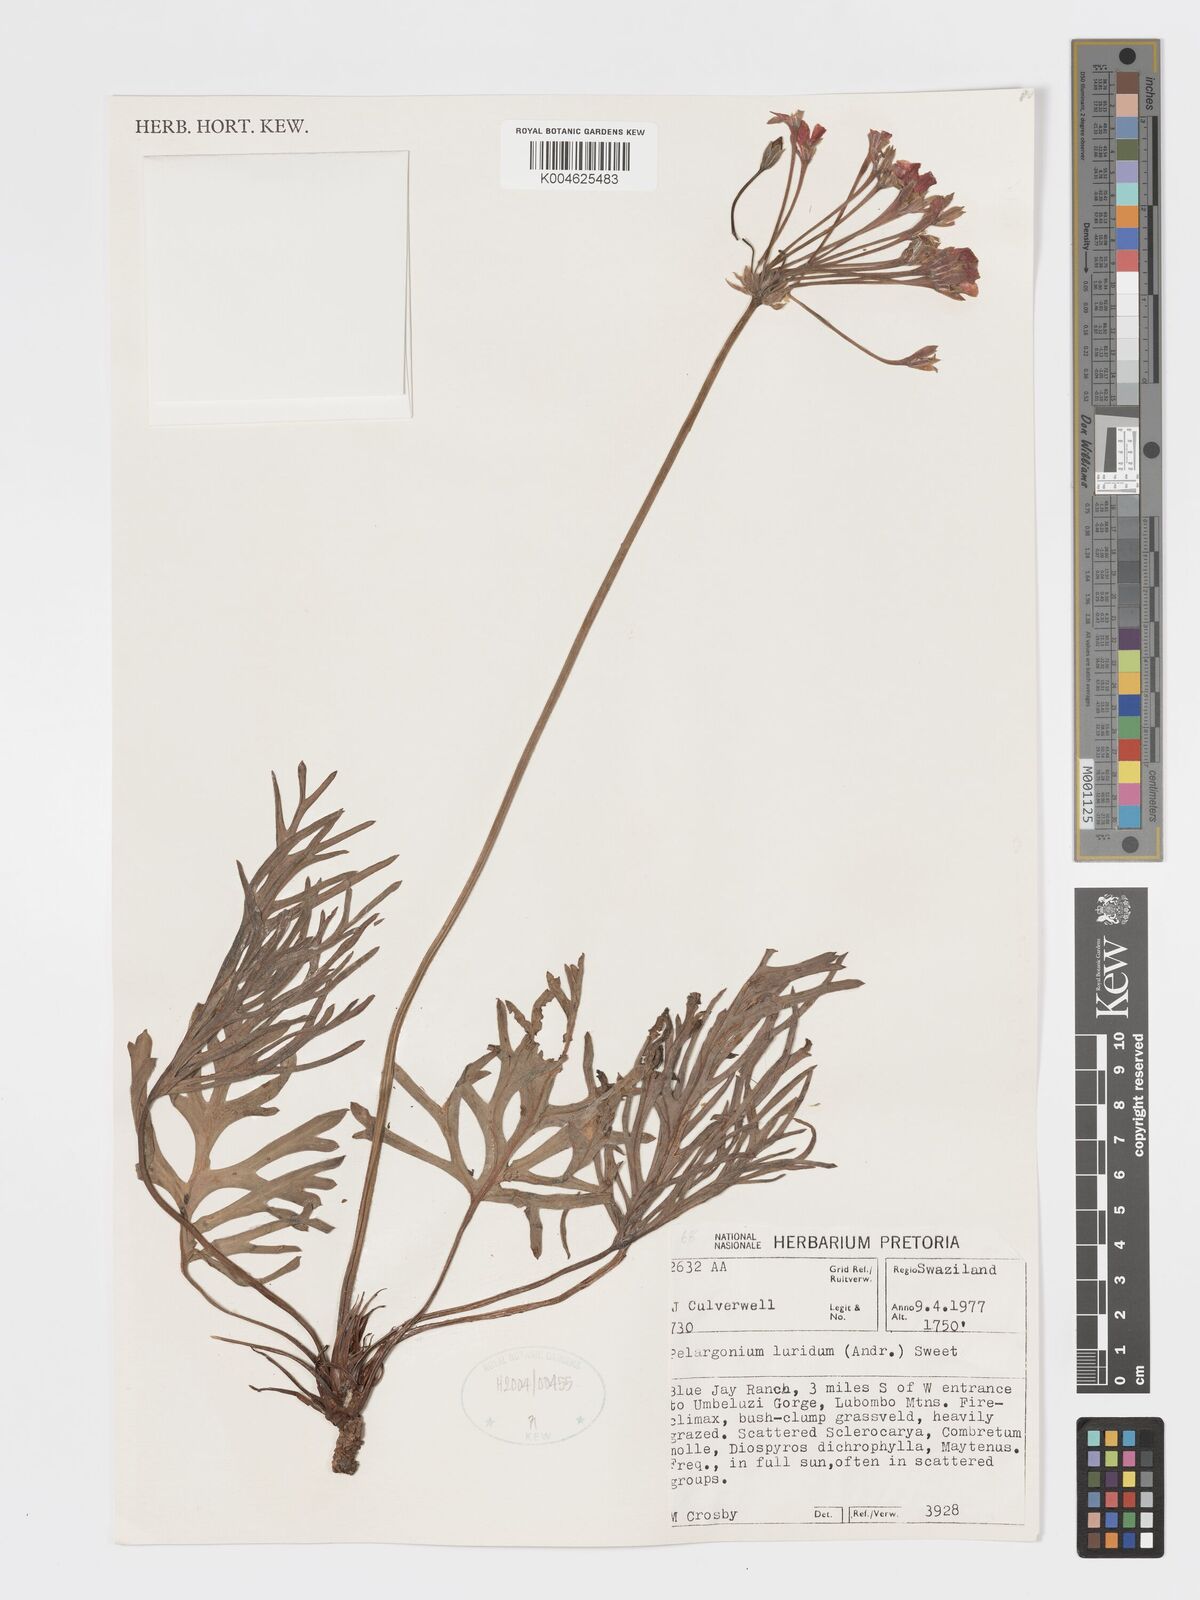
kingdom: Plantae
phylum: Tracheophyta
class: Magnoliopsida
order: Geraniales
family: Geraniaceae
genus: Pelargonium
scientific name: Pelargonium luridum
